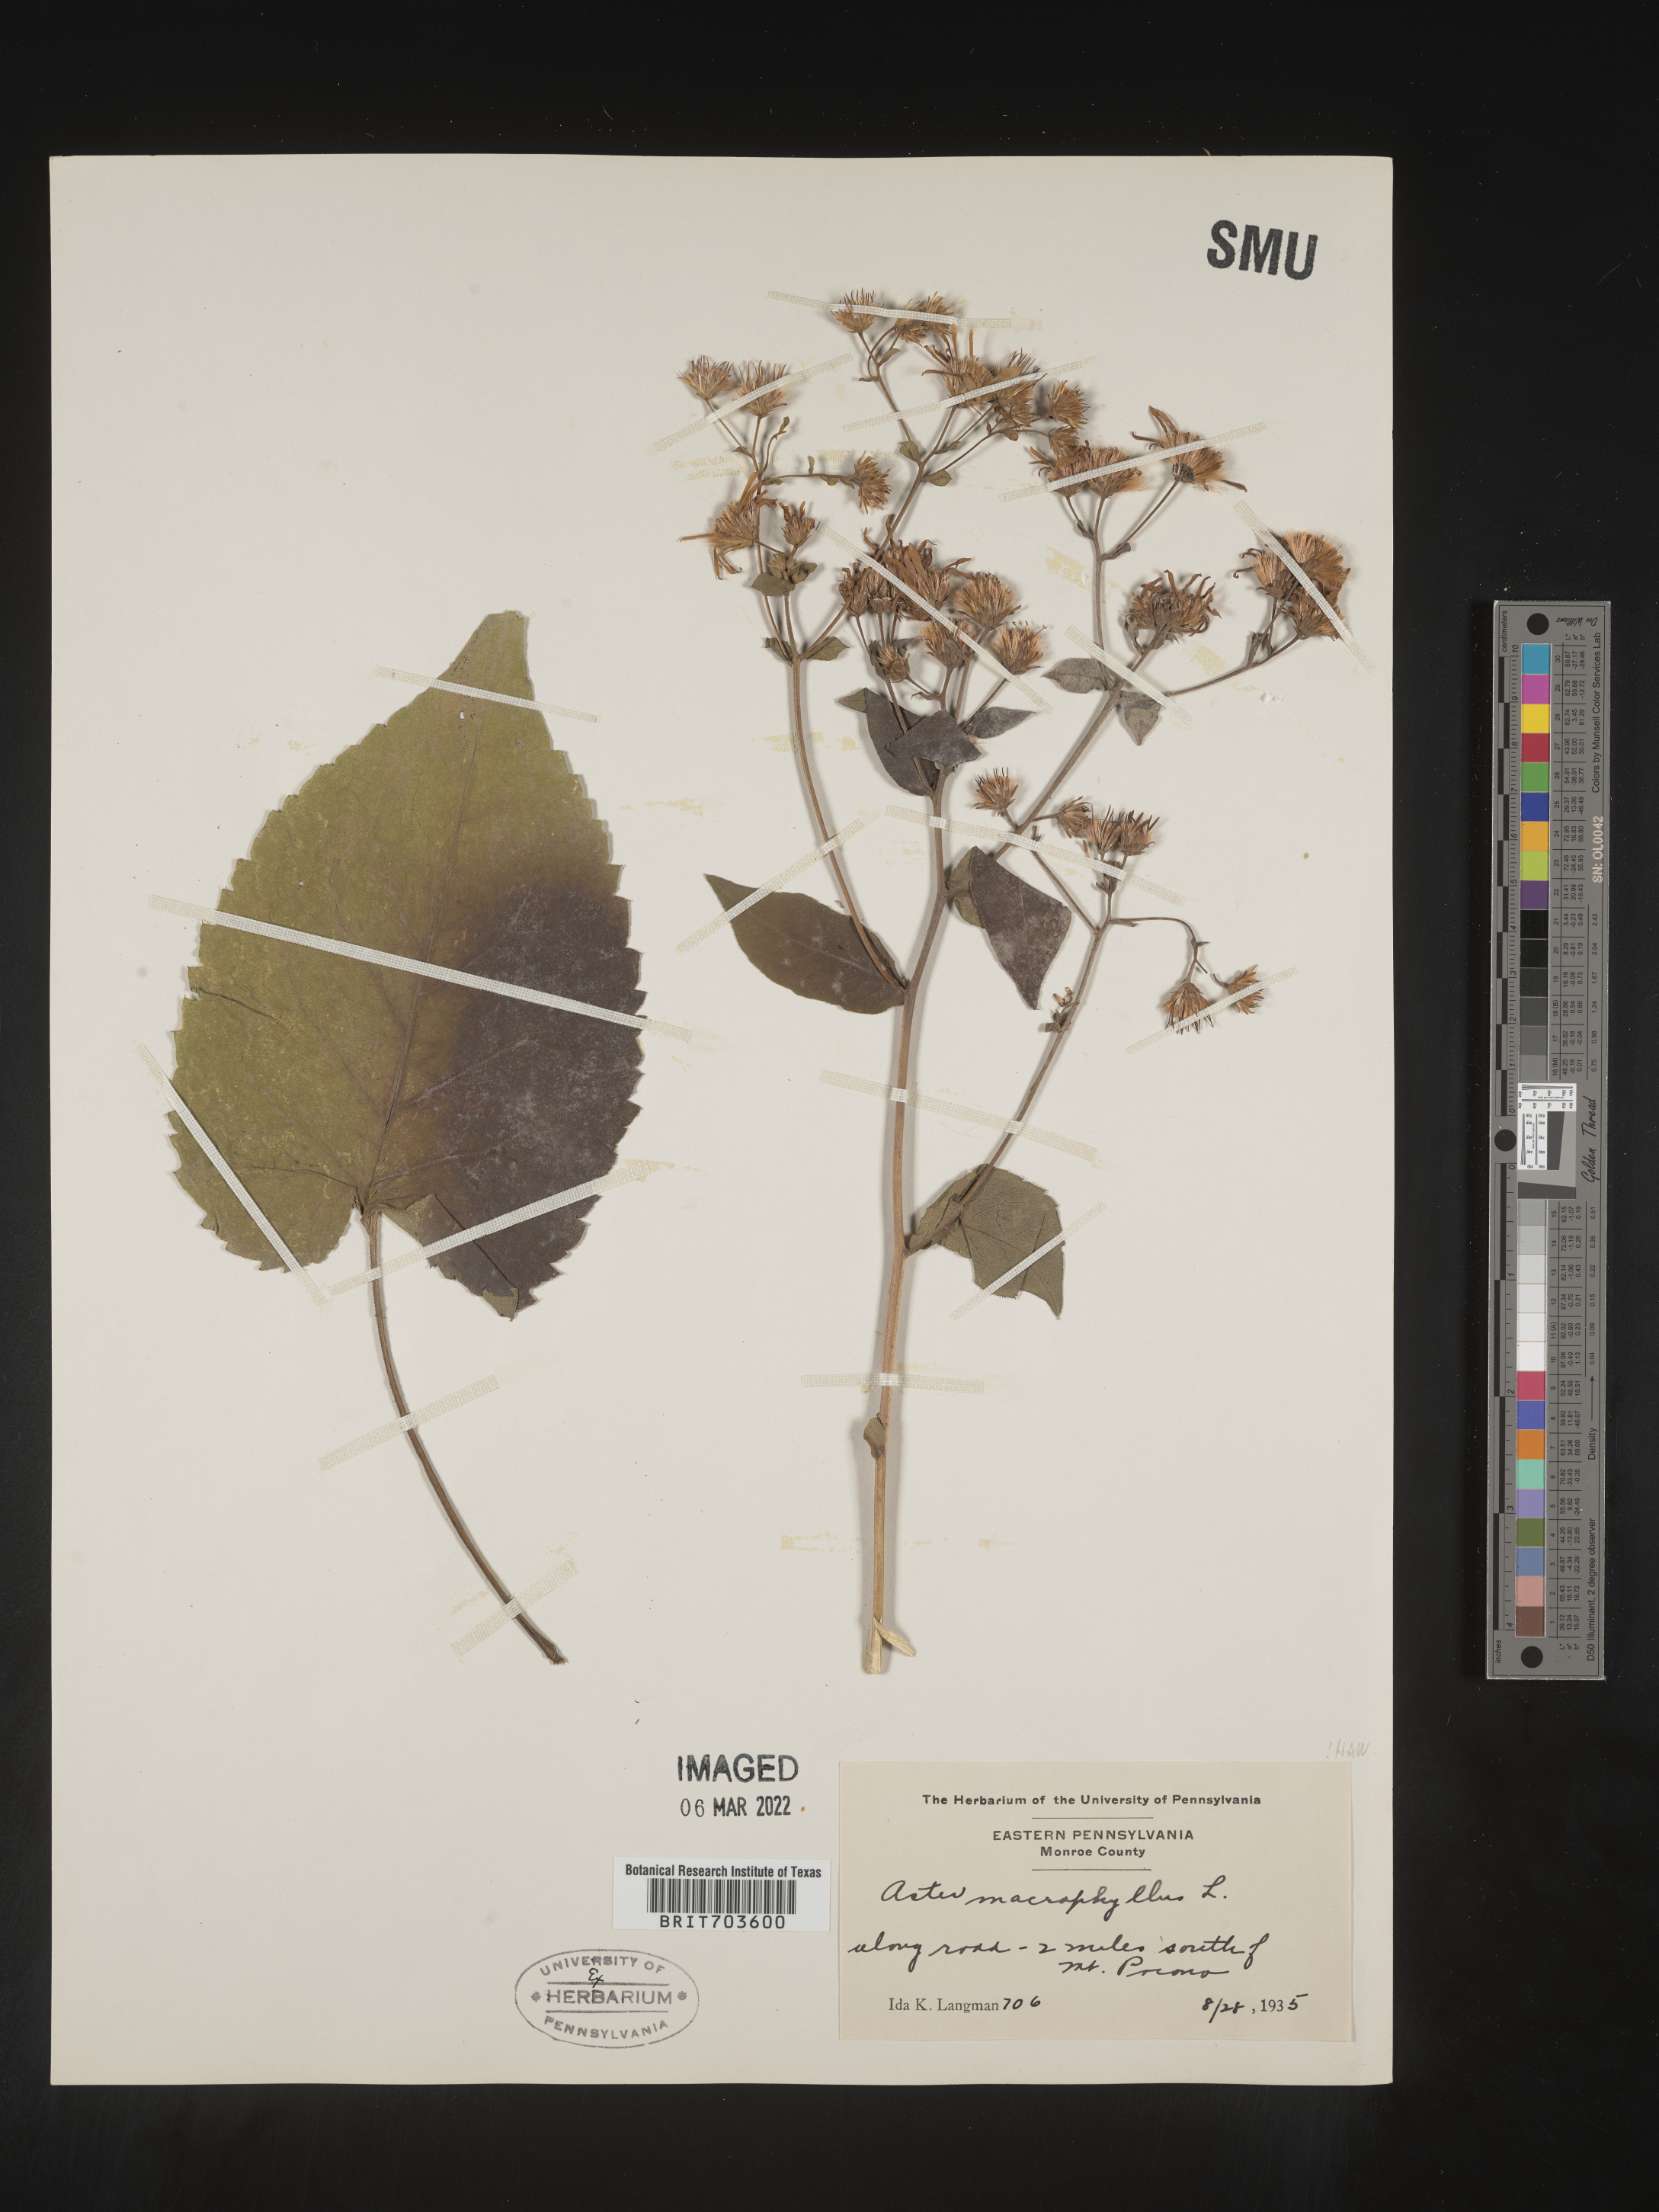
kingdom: Plantae
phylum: Tracheophyta
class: Magnoliopsida
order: Asterales
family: Asteraceae
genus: Eurybia
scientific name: Eurybia macrophylla
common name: Big-leaved aster
